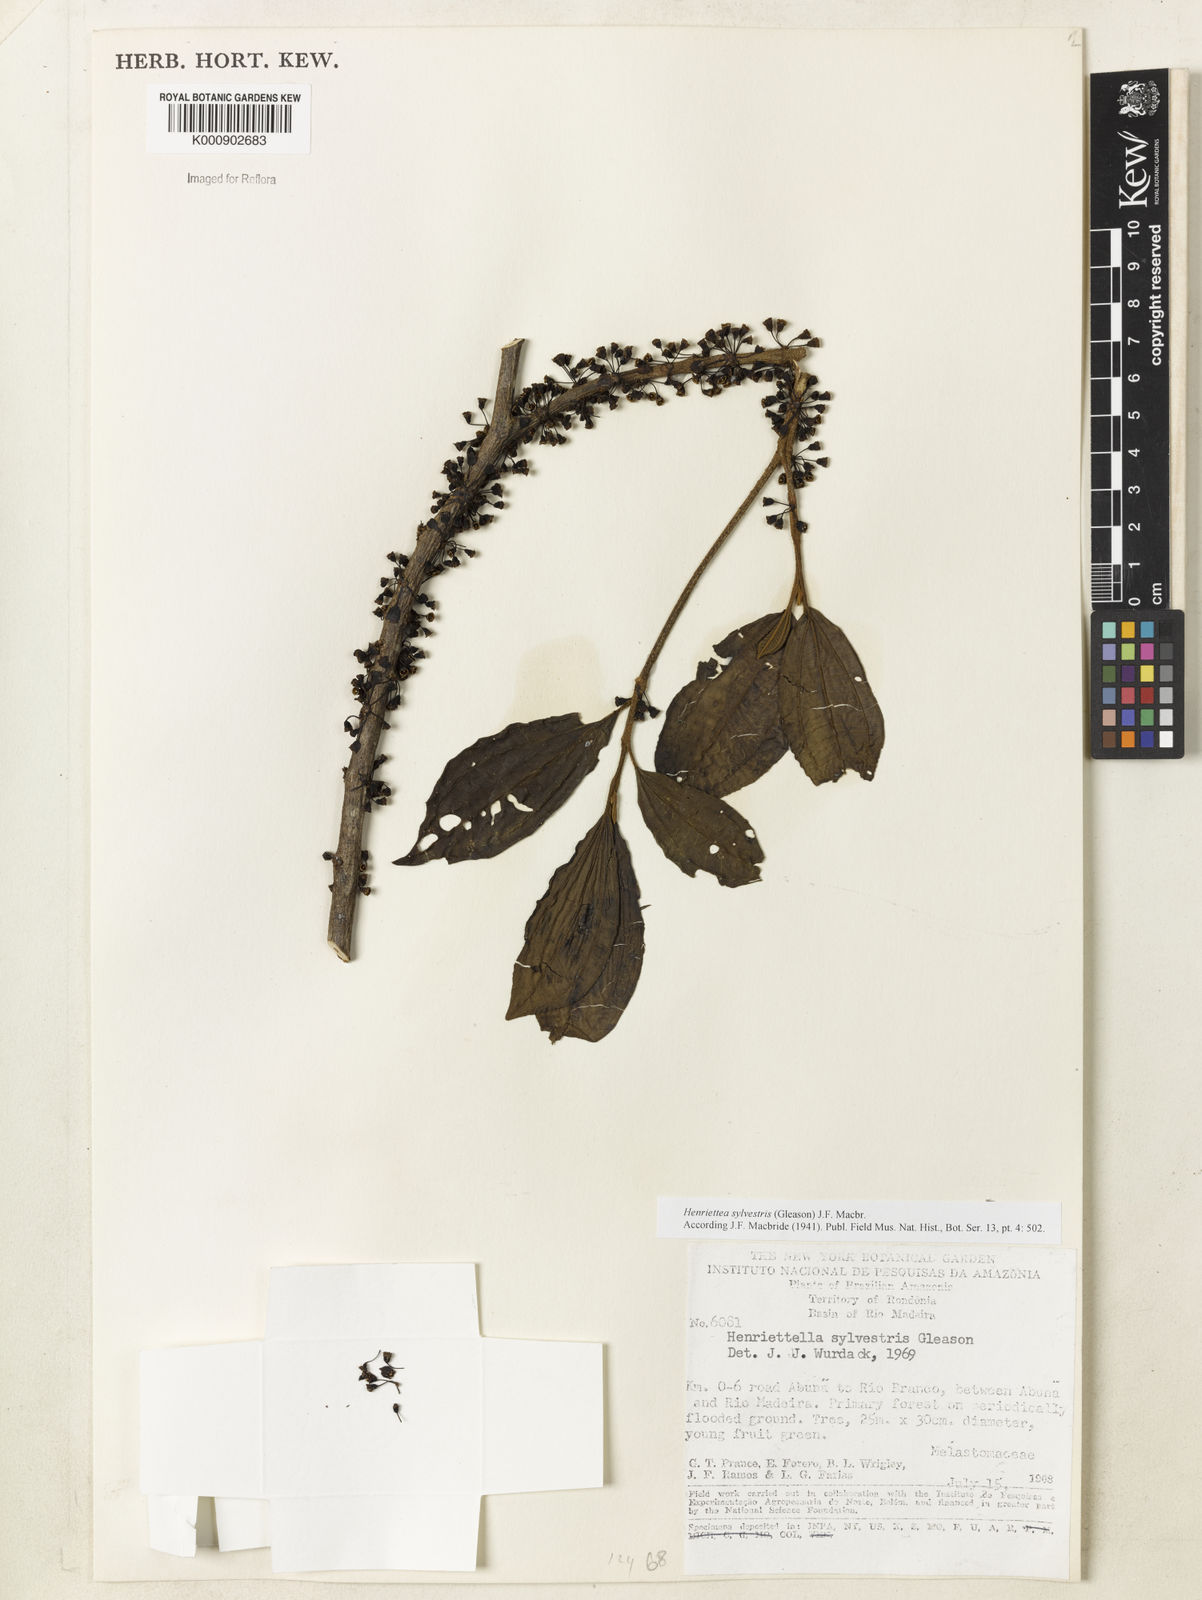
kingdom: Plantae
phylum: Tracheophyta
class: Magnoliopsida
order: Myrtales
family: Melastomataceae
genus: Henriettea
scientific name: Henriettea sylvestris
